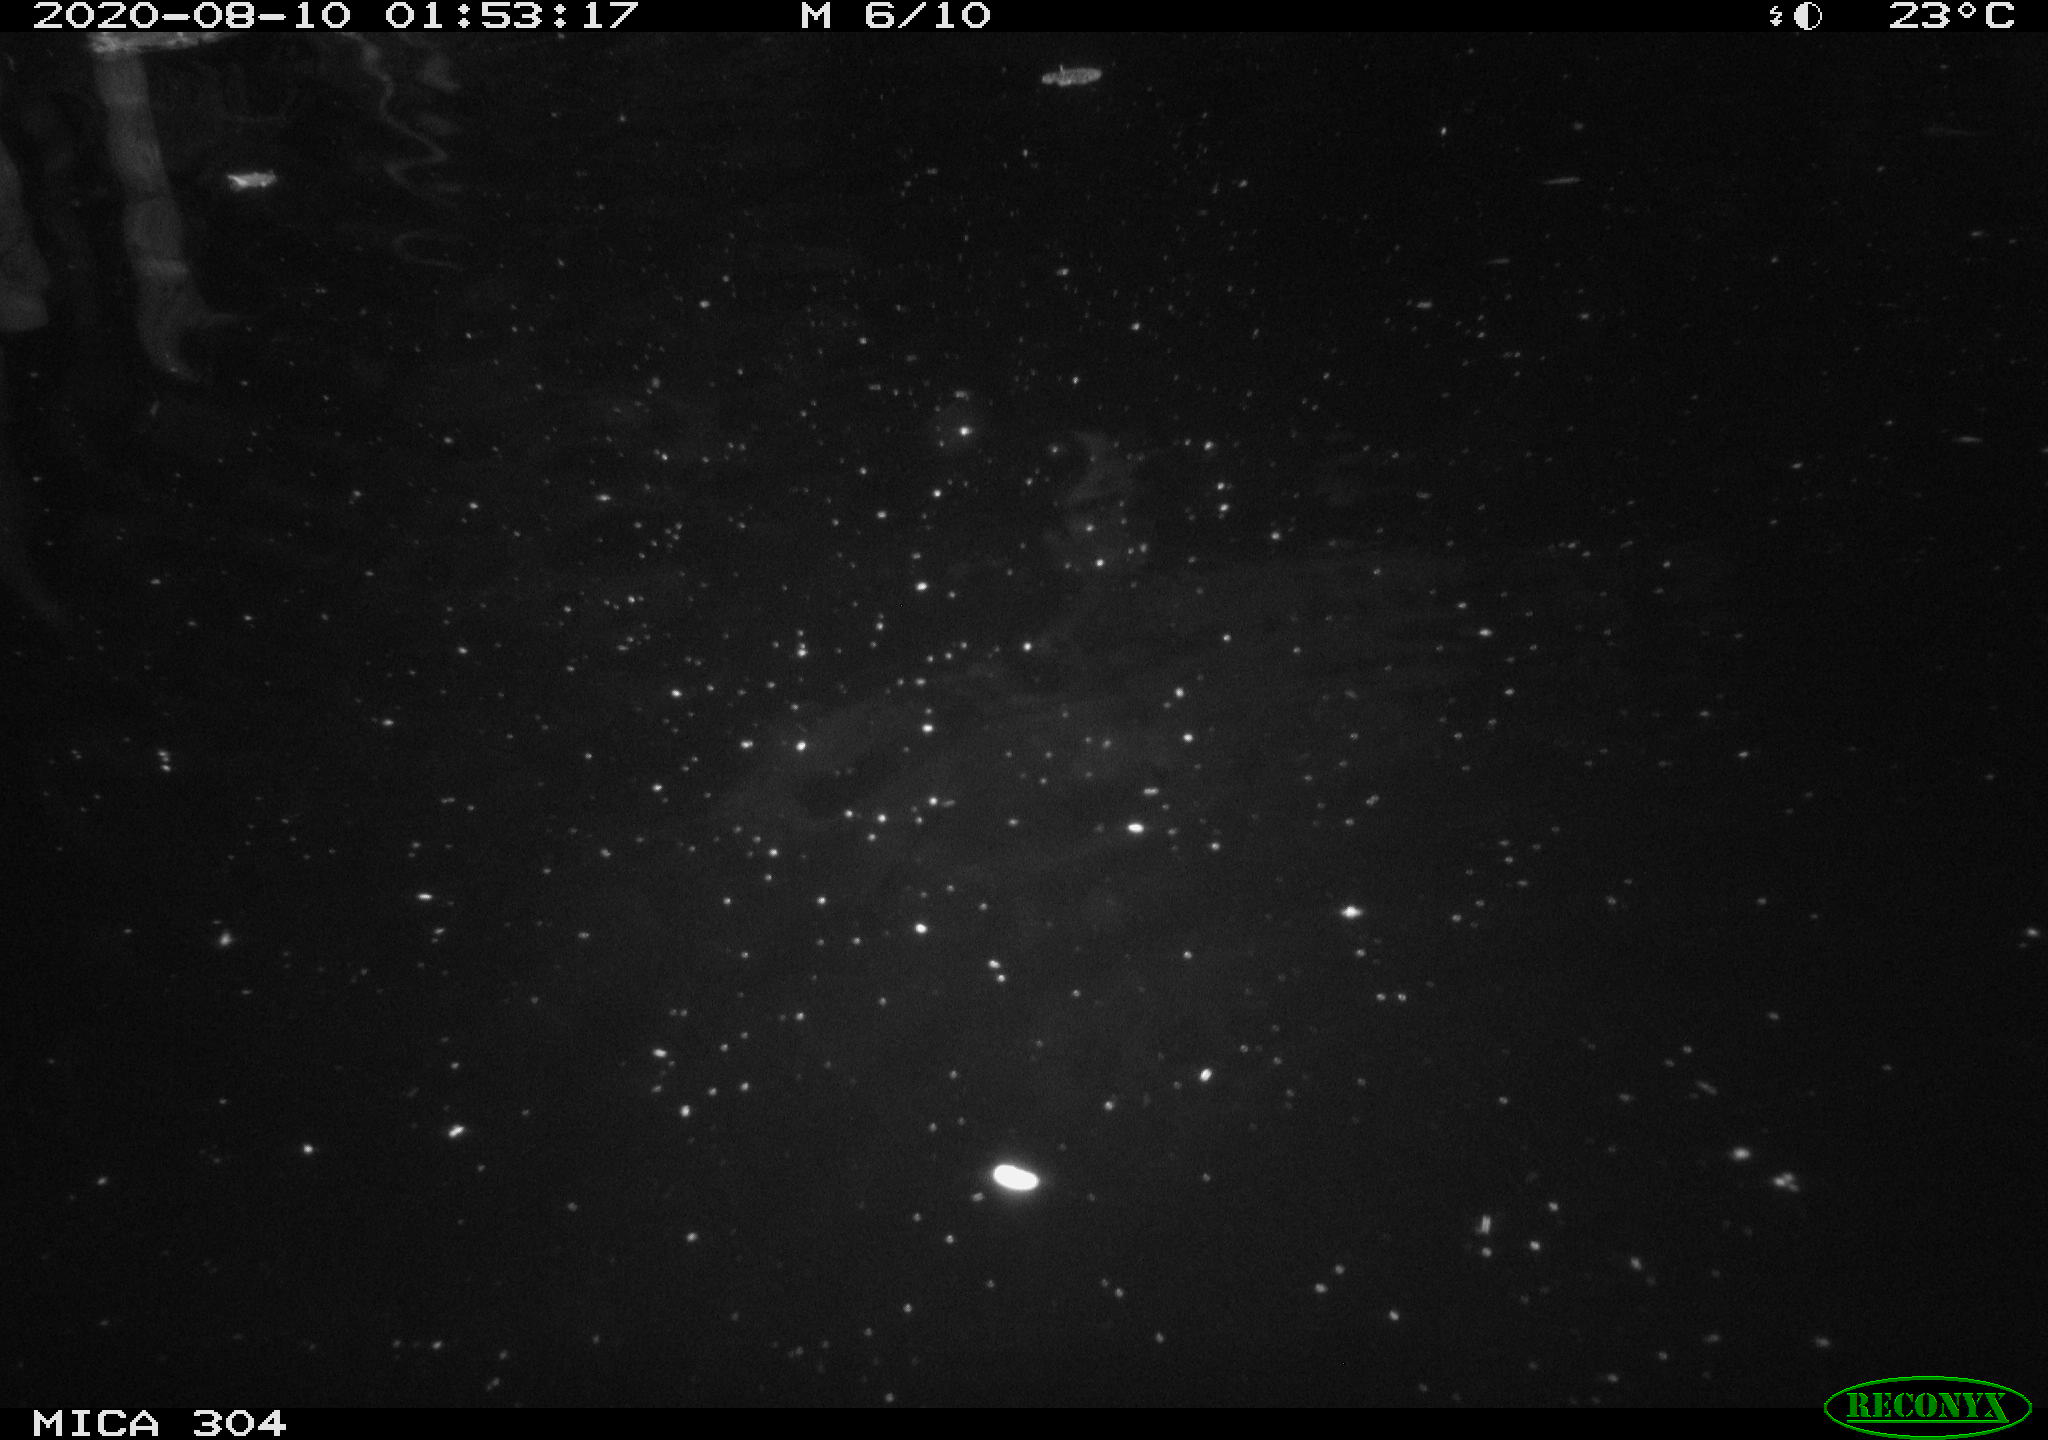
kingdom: Animalia
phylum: Chordata
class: Mammalia
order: Rodentia
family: Cricetidae
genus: Ondatra
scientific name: Ondatra zibethicus
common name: Muskrat
